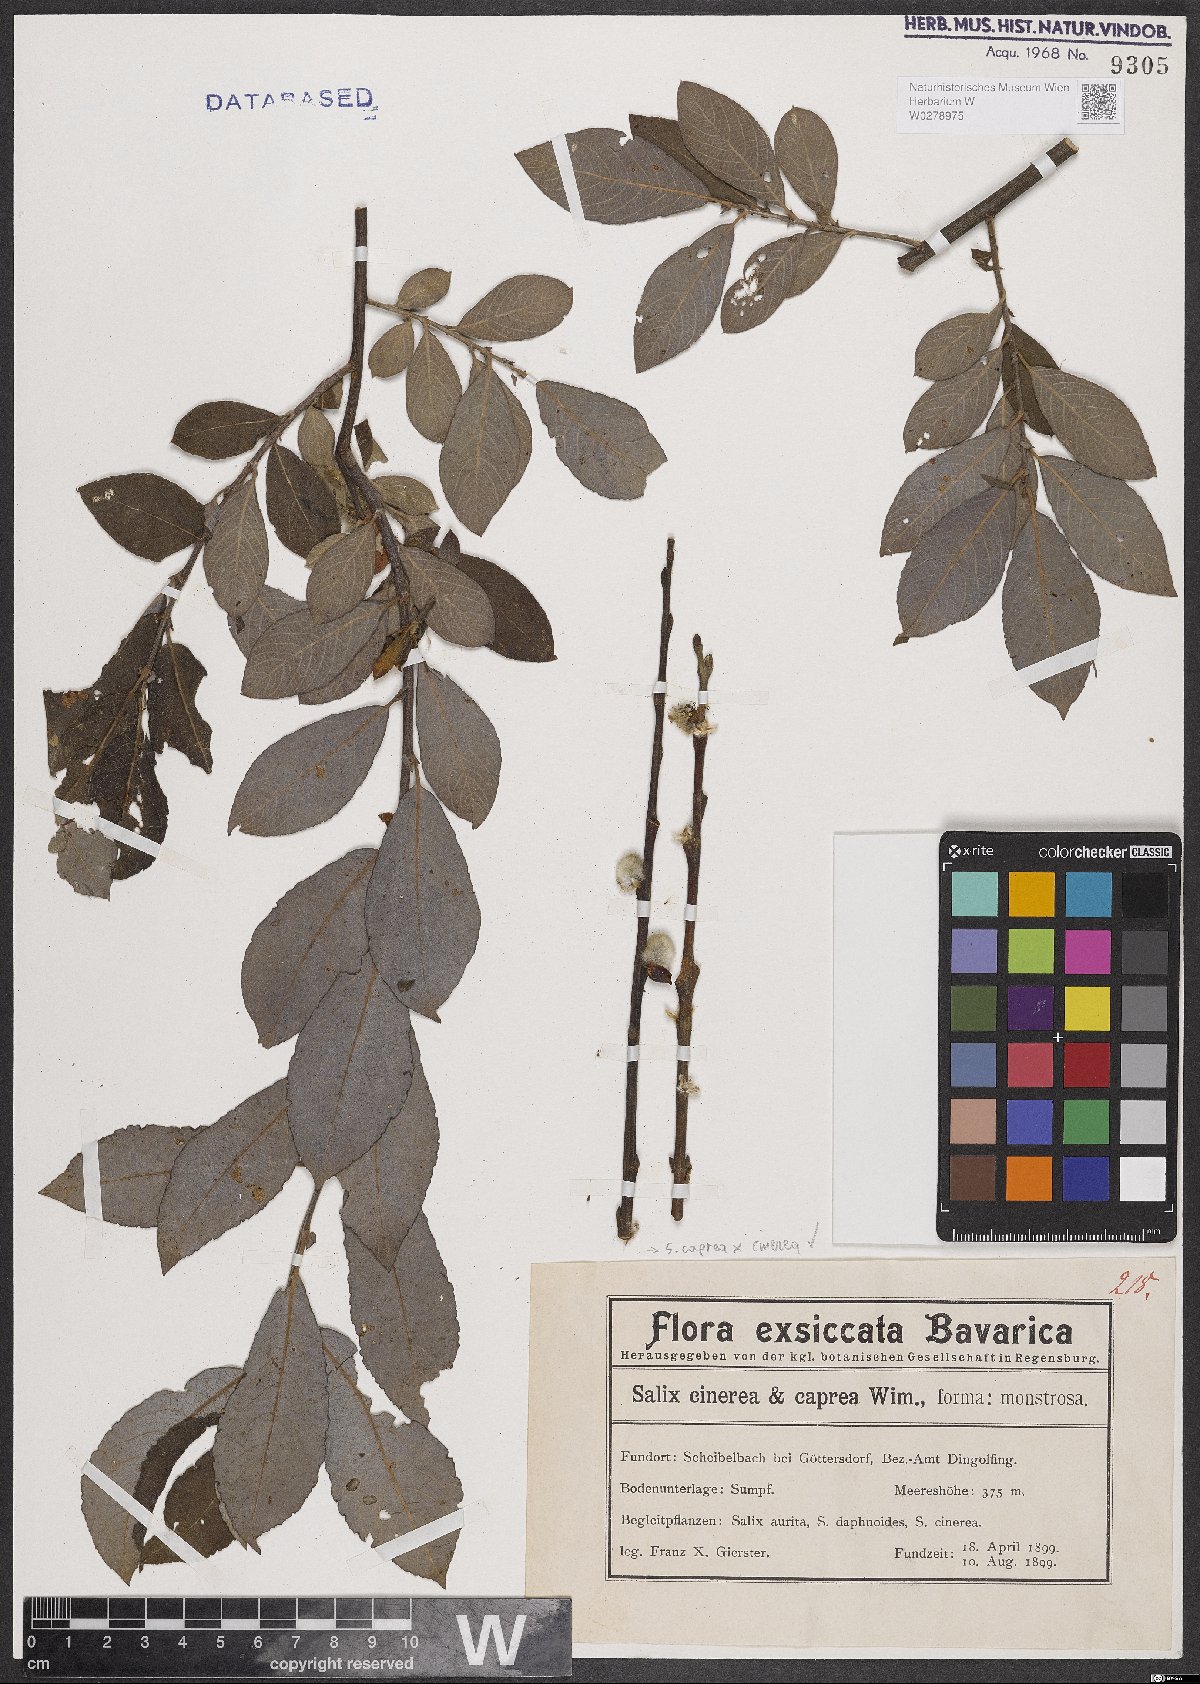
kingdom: Plantae
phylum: Tracheophyta
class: Magnoliopsida
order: Malpighiales
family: Salicaceae
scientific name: Salicaceae
